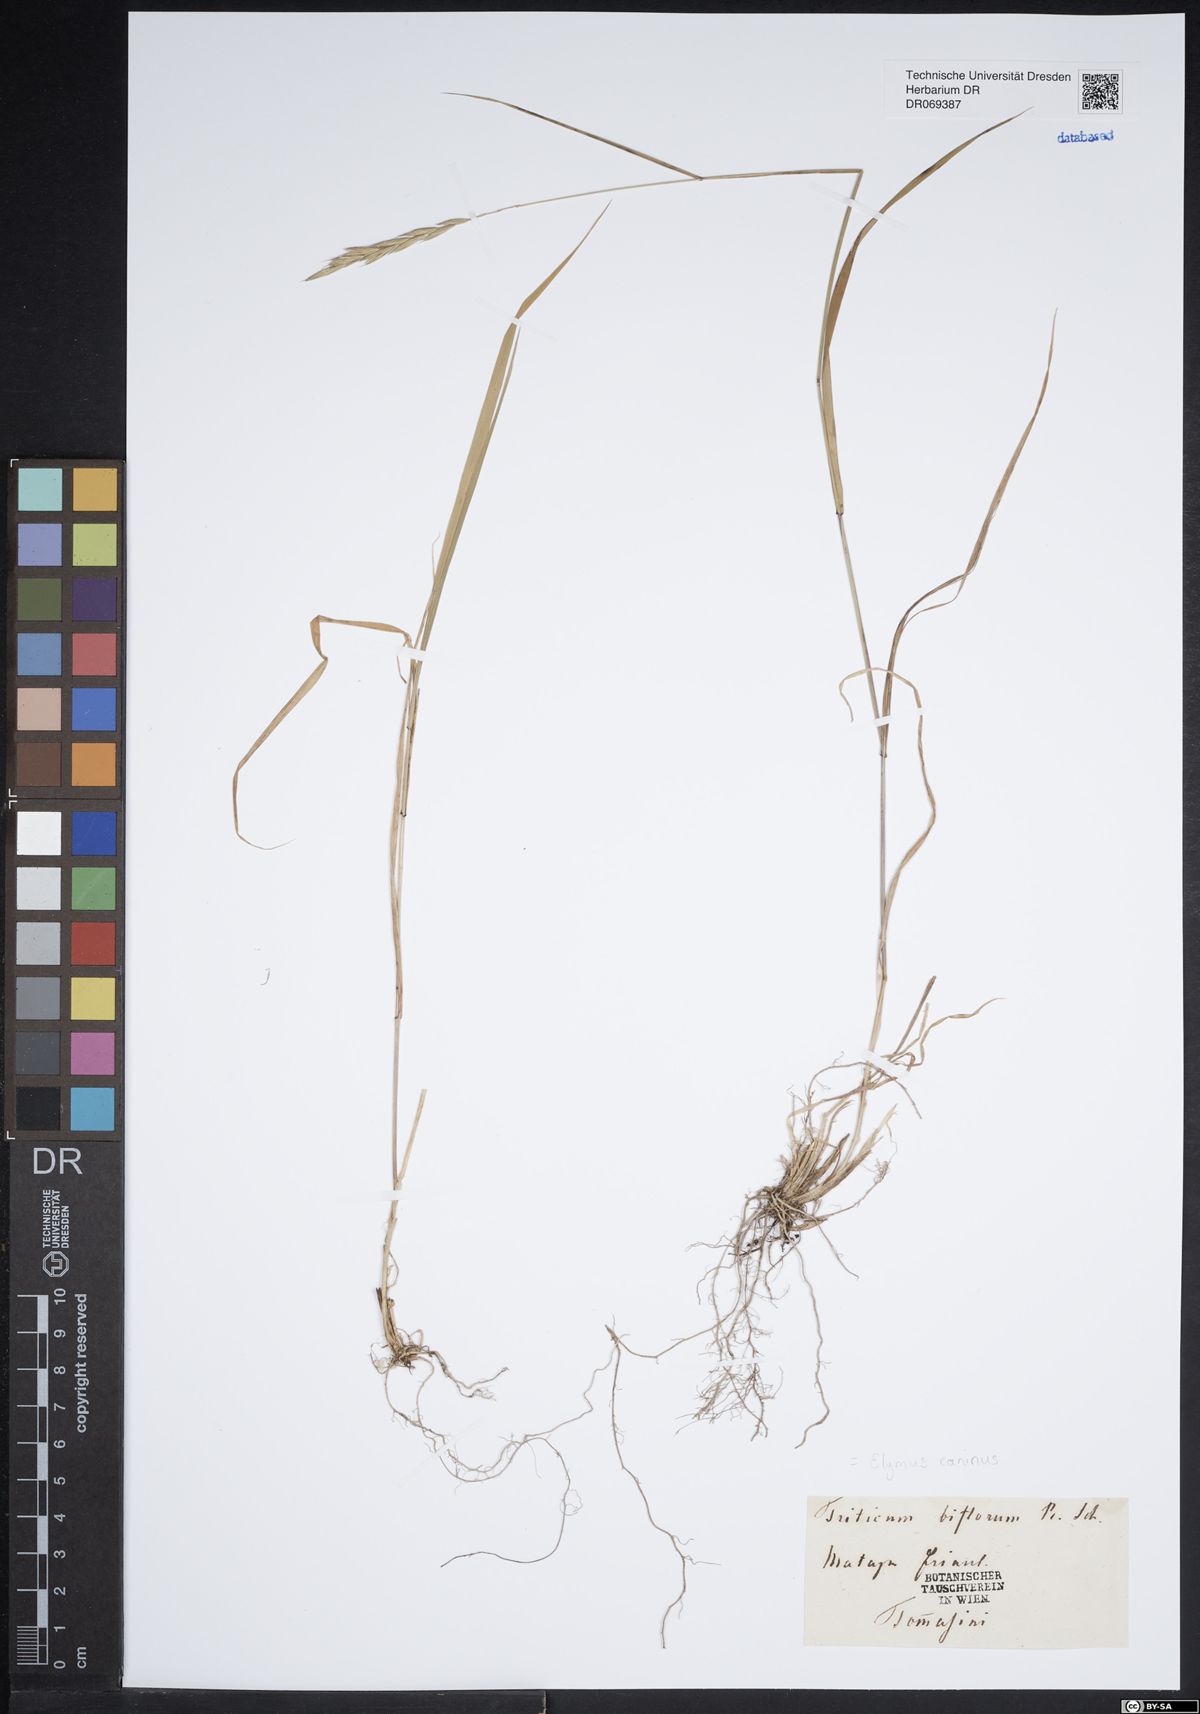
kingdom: Plantae
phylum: Tracheophyta
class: Liliopsida
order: Poales
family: Poaceae
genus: Elymus
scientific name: Elymus caninus
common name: Bearded couch
